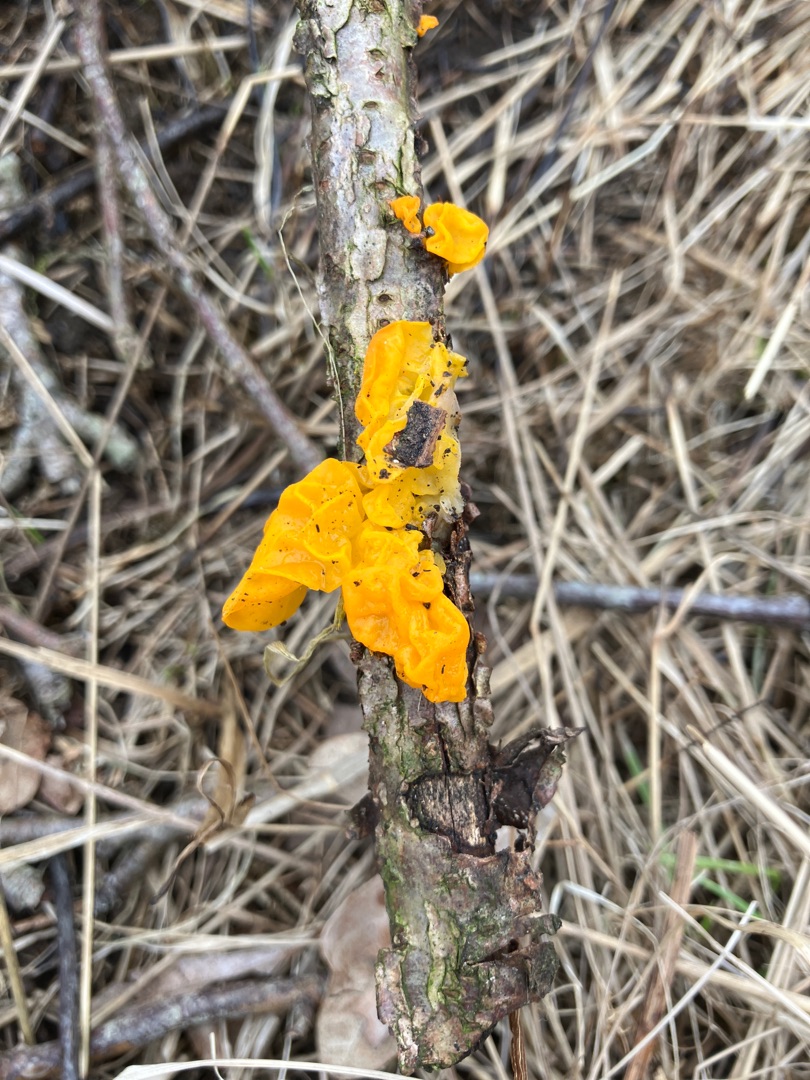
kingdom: Fungi
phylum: Basidiomycota
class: Tremellomycetes
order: Tremellales
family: Tremellaceae
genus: Tremella
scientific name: Tremella mesenterica
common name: Gul bævresvamp
